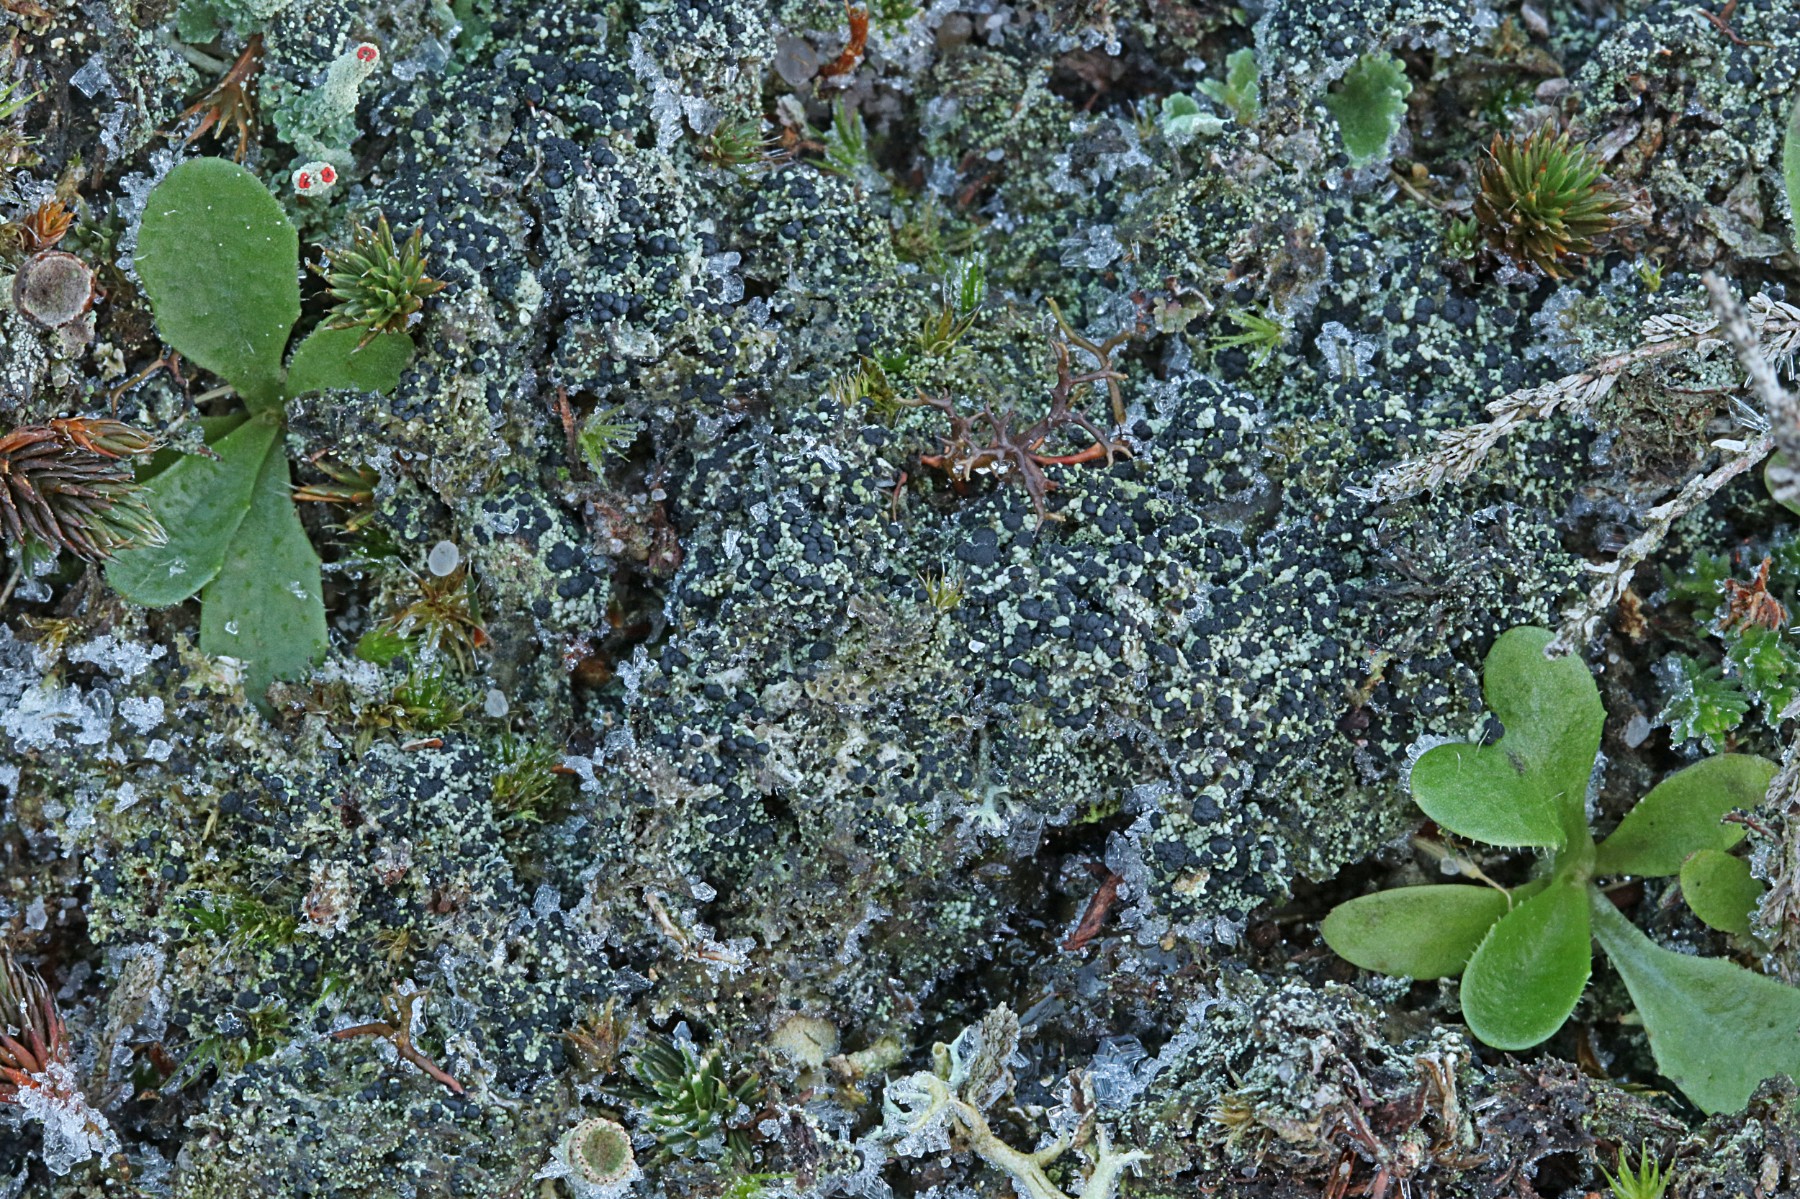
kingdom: Fungi
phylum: Ascomycota
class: Lecanoromycetes
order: Lecanorales
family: Byssolomataceae
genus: Micarea
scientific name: Micarea lignaria
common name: tørve-knaplav
